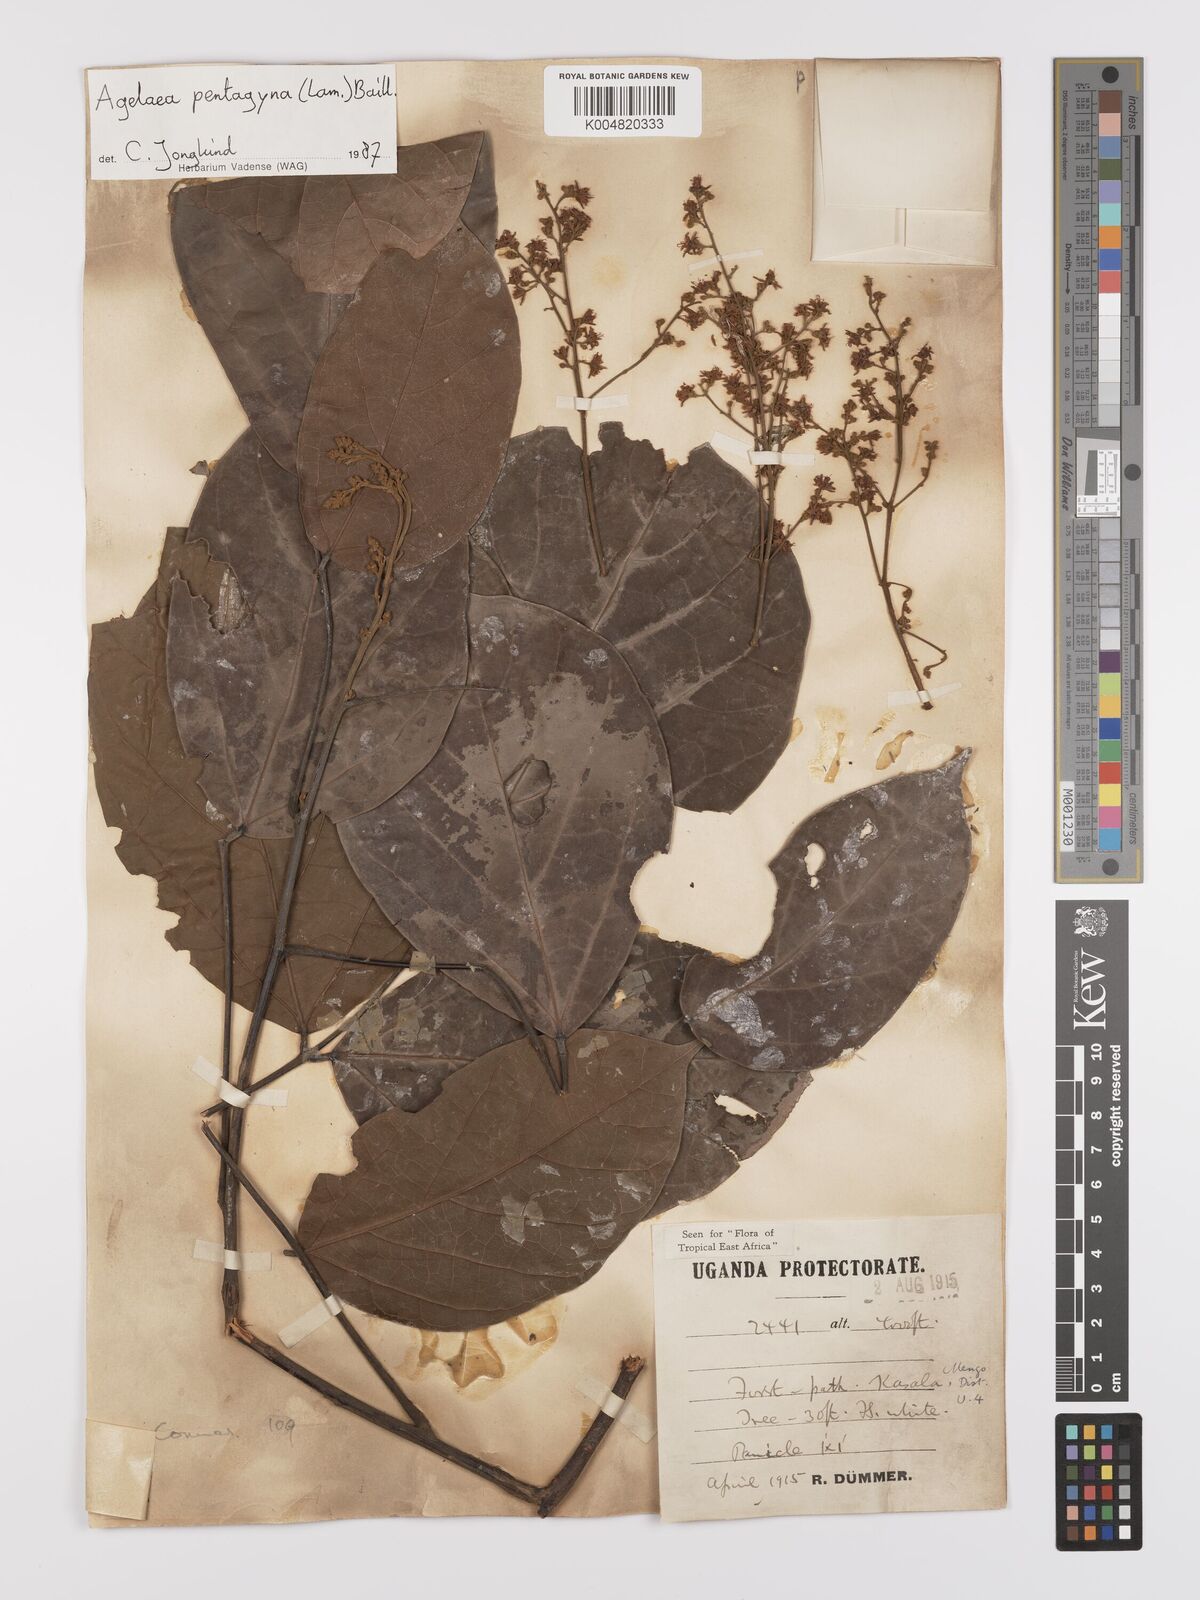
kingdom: Plantae
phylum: Tracheophyta
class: Magnoliopsida
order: Oxalidales
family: Connaraceae
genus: Agelaea
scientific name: Agelaea pentagyna
